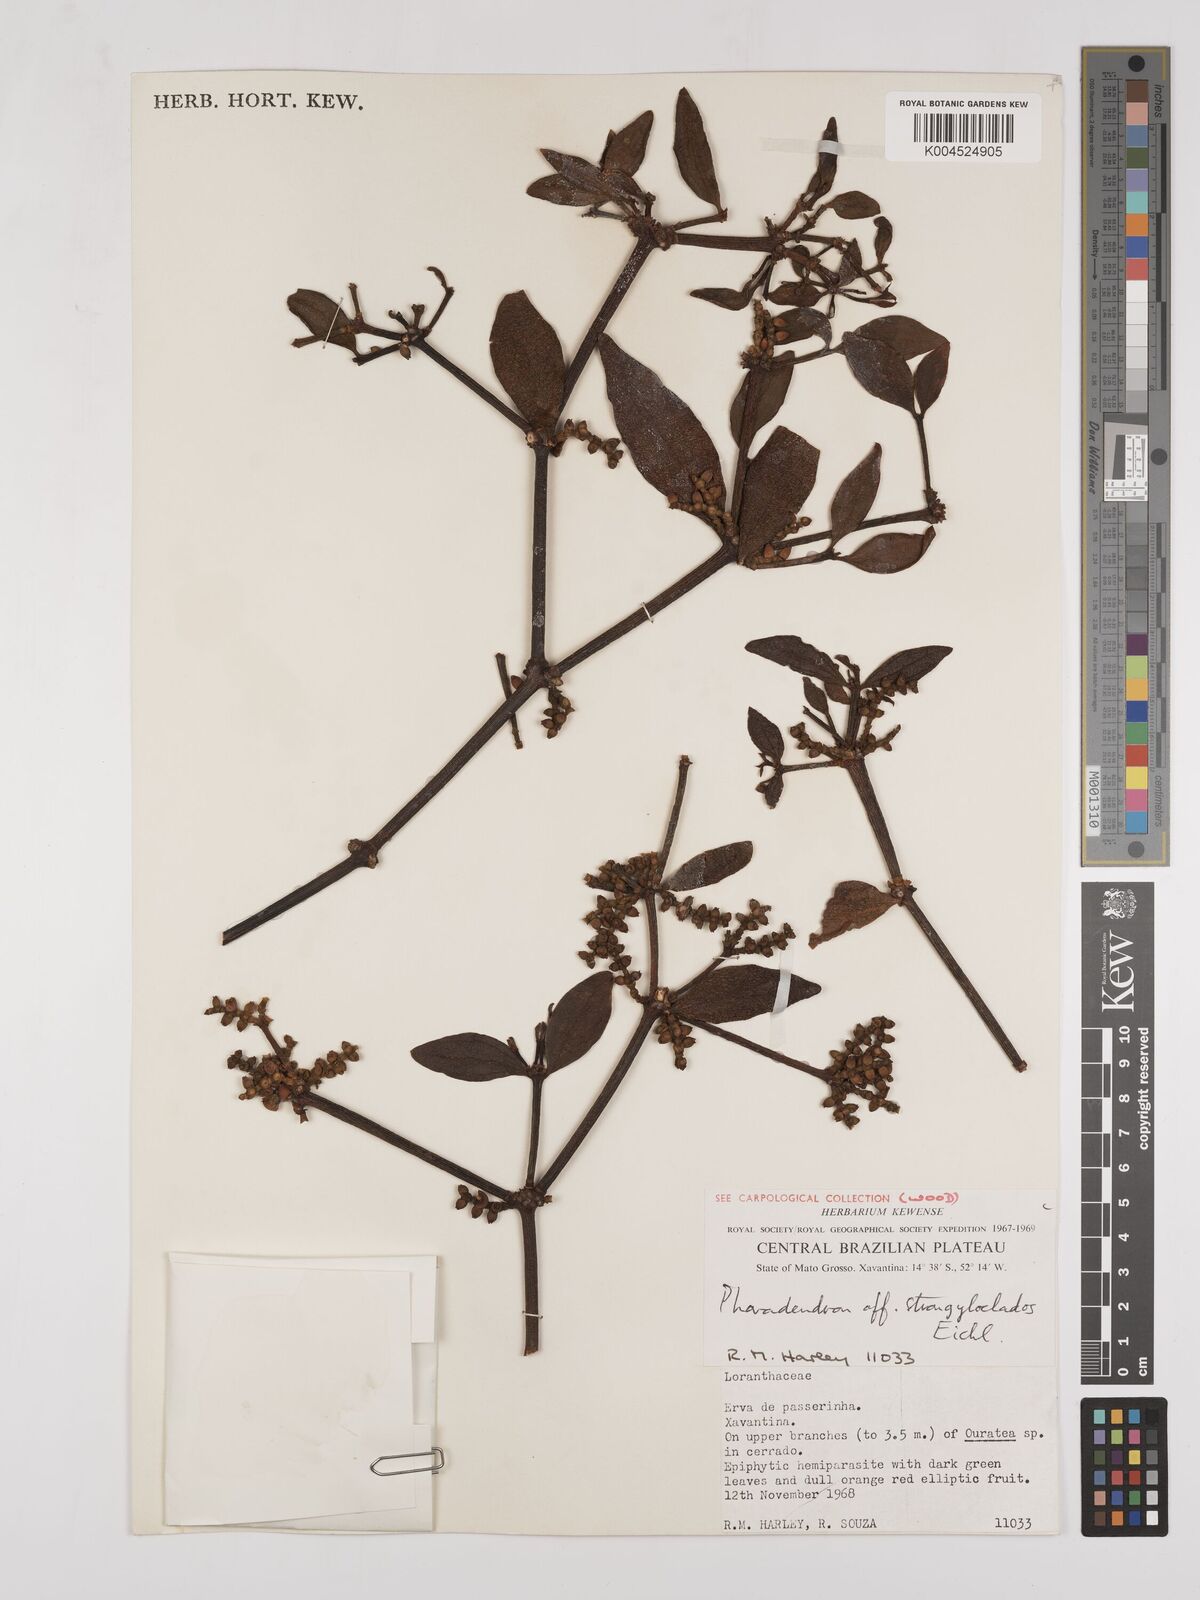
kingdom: Plantae
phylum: Tracheophyta
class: Magnoliopsida
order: Santalales
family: Viscaceae
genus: Phoradendron
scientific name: Phoradendron strongyloclados
